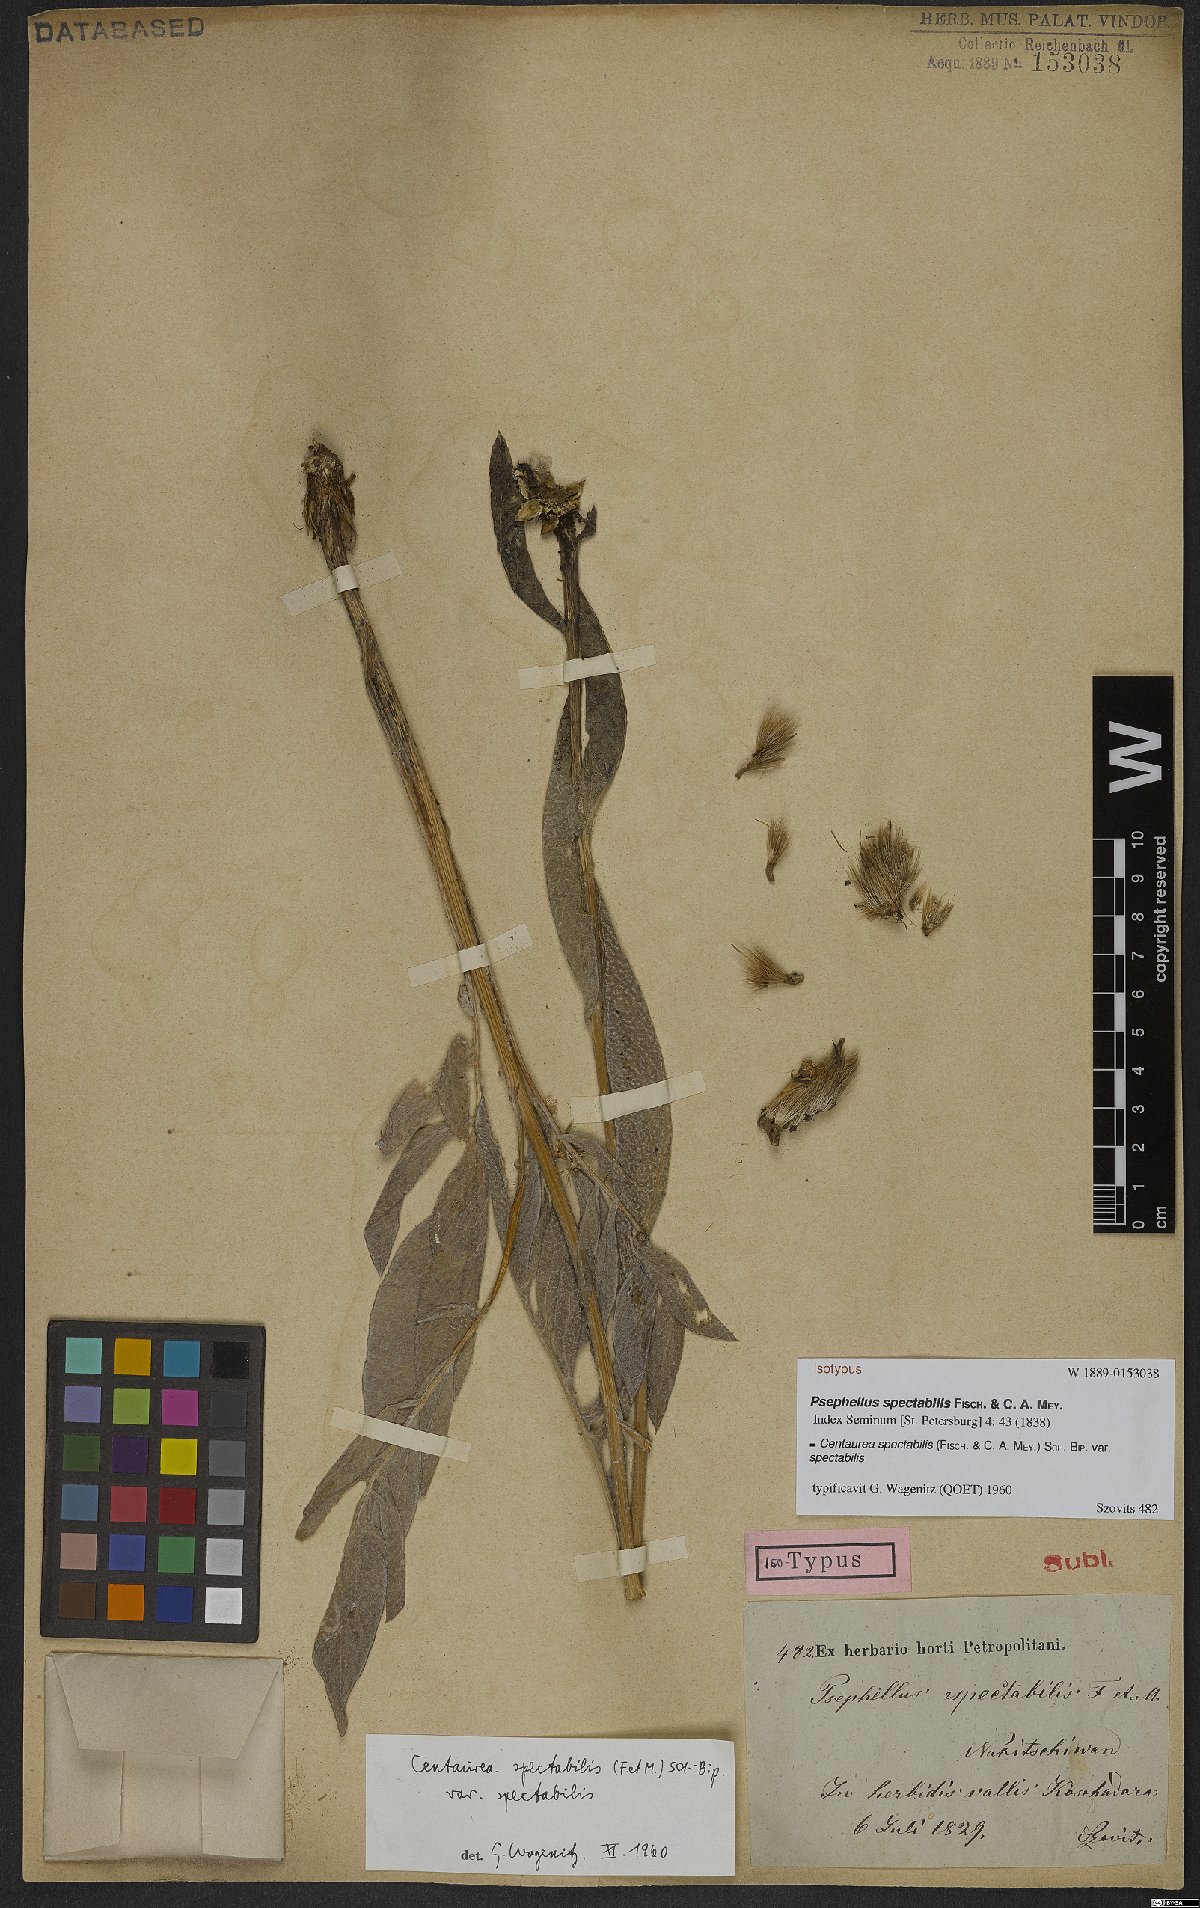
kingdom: Plantae
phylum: Tracheophyta
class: Magnoliopsida
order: Asterales
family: Asteraceae
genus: Centaurea
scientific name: Centaurea spectabilis
